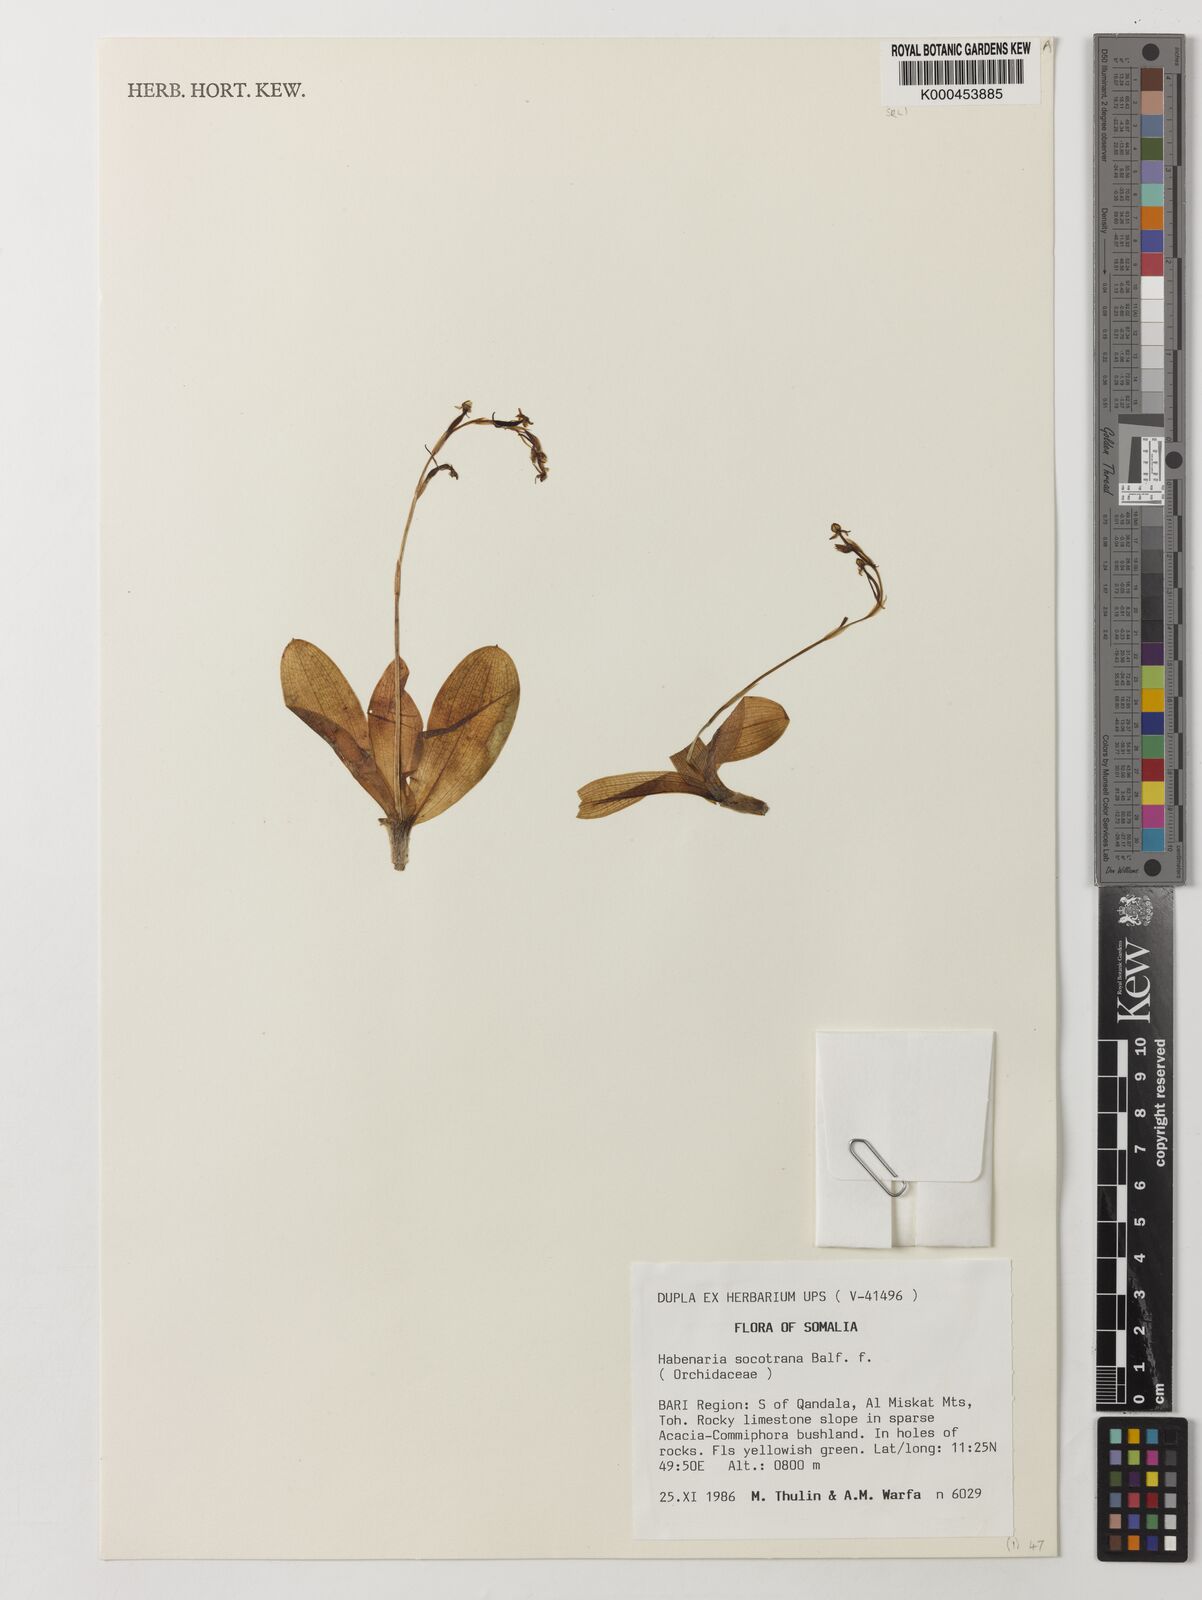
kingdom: Plantae
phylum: Tracheophyta
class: Liliopsida
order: Asparagales
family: Orchidaceae
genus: Habenaria
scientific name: Habenaria socotrana
